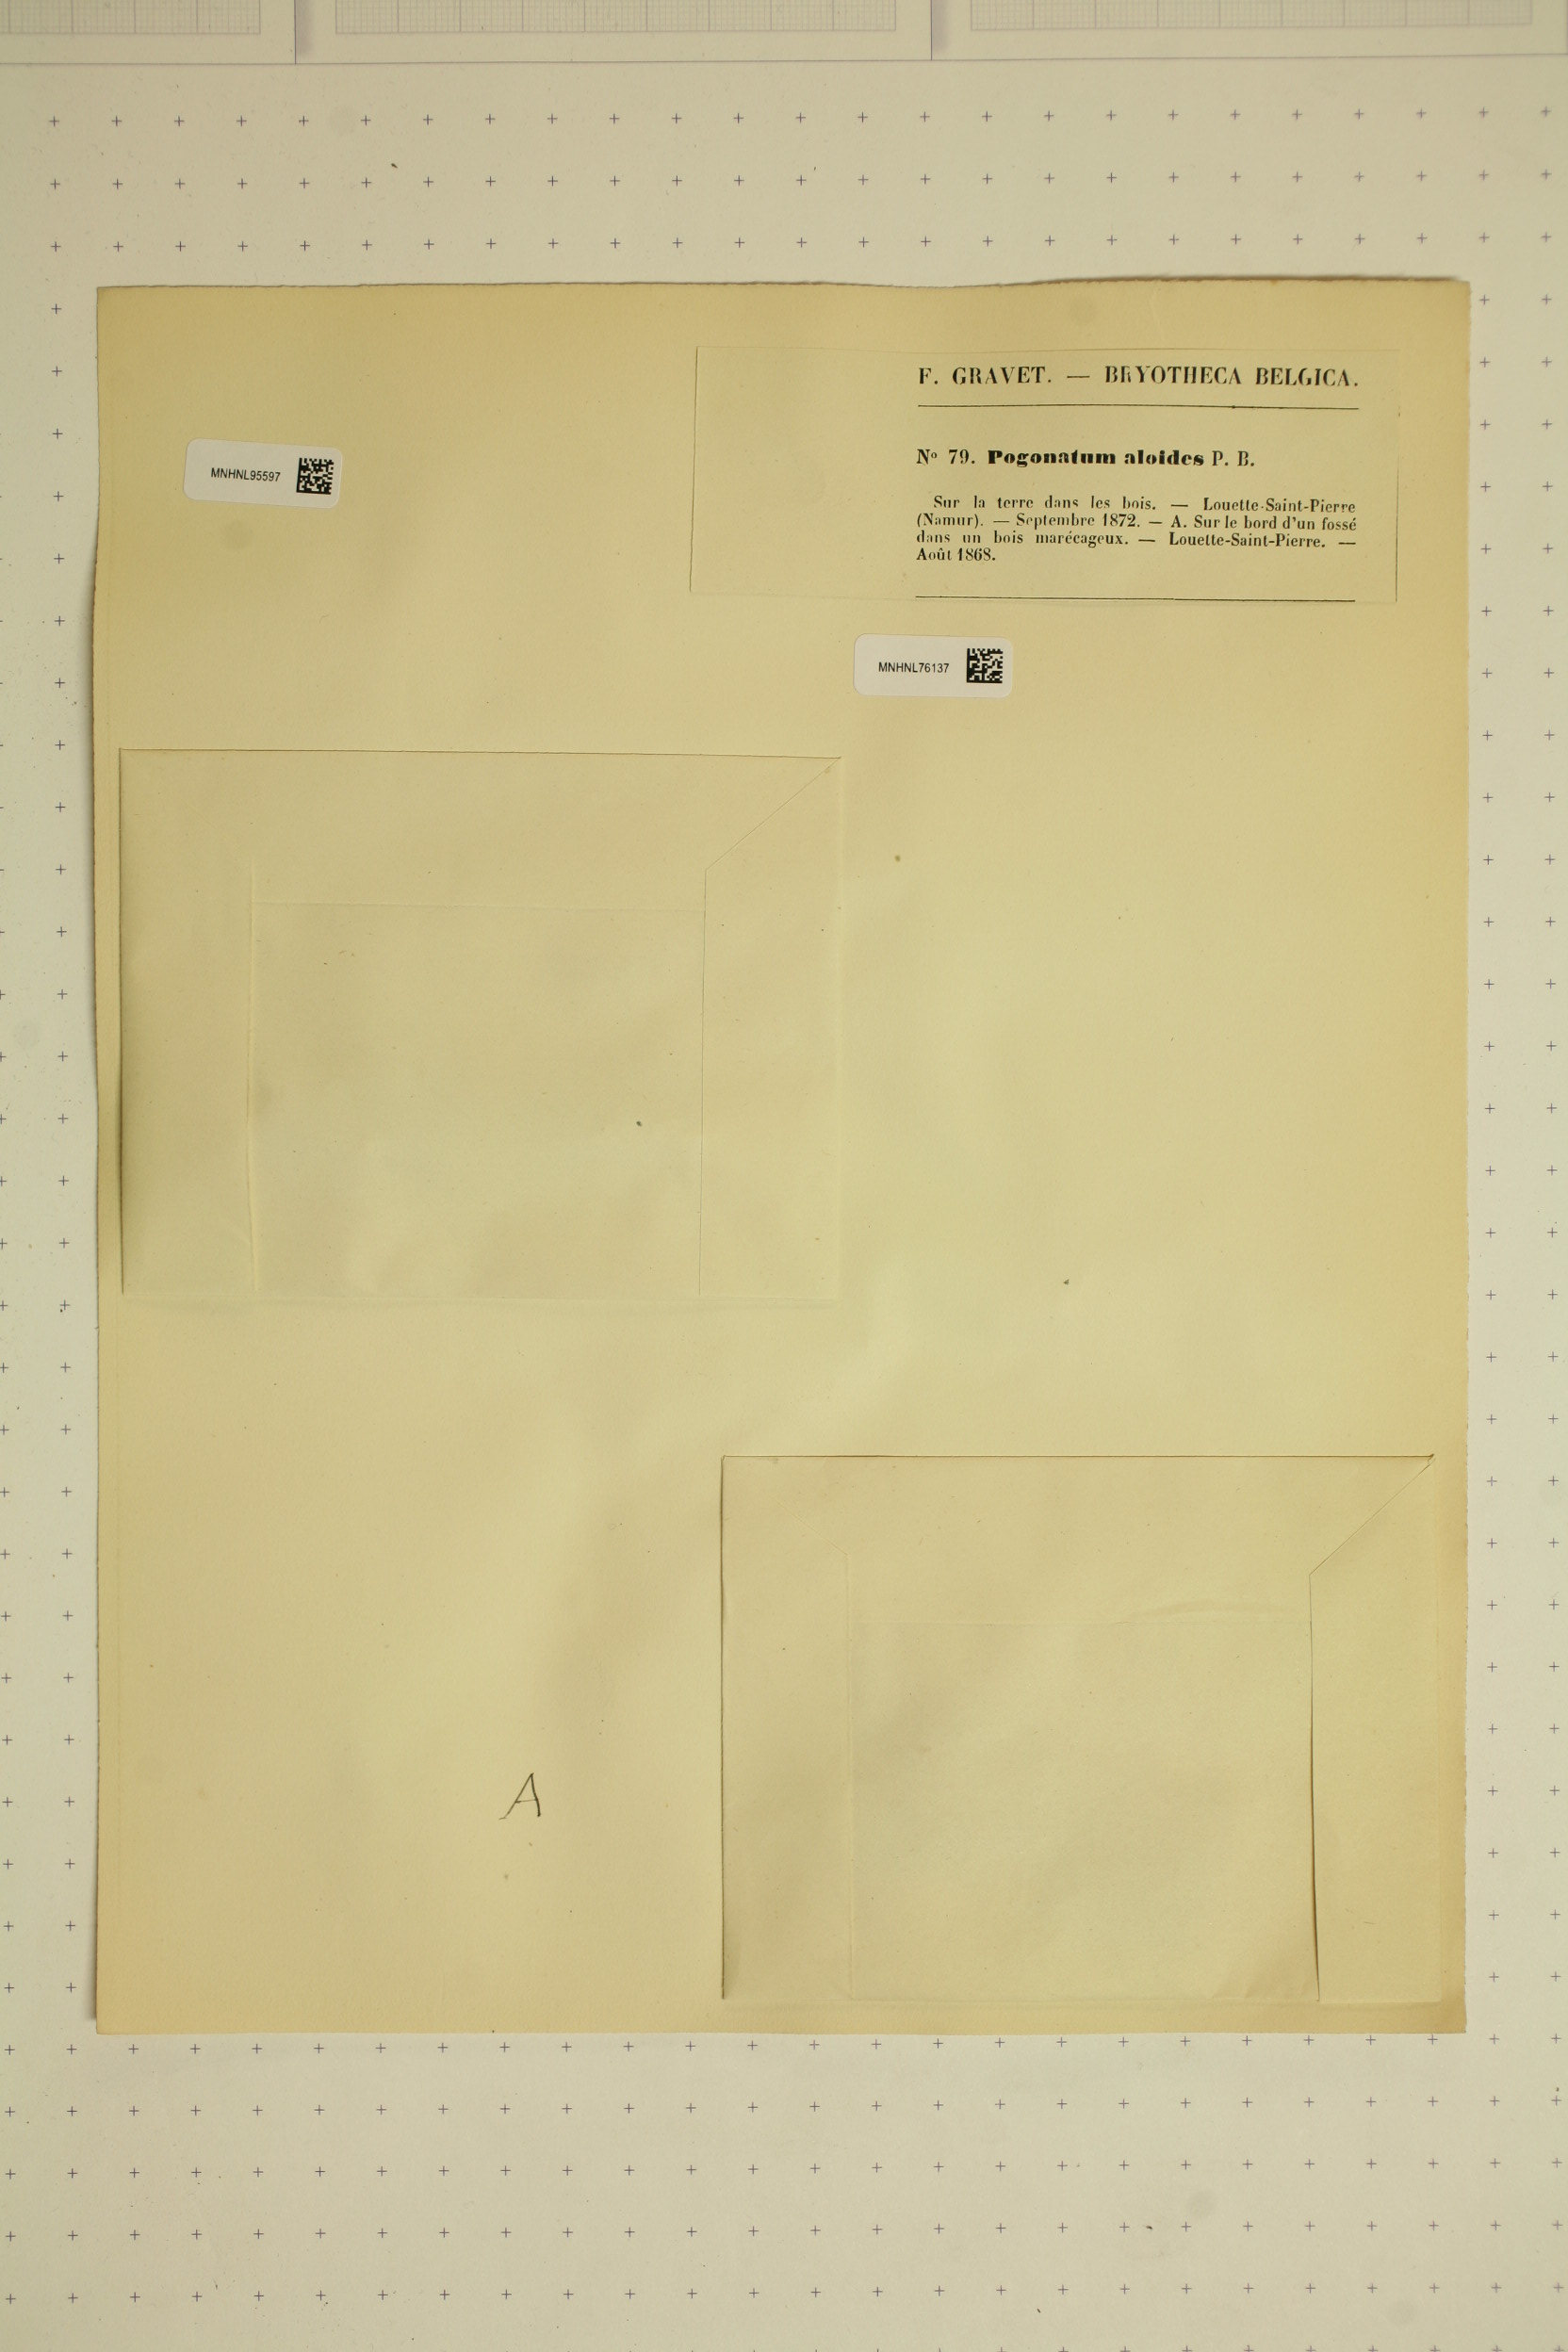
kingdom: Plantae
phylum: Bryophyta
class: Polytrichopsida
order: Polytrichales
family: Polytrichaceae
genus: Pogonatum
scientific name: Pogonatum aloides
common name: Aloe haircap
